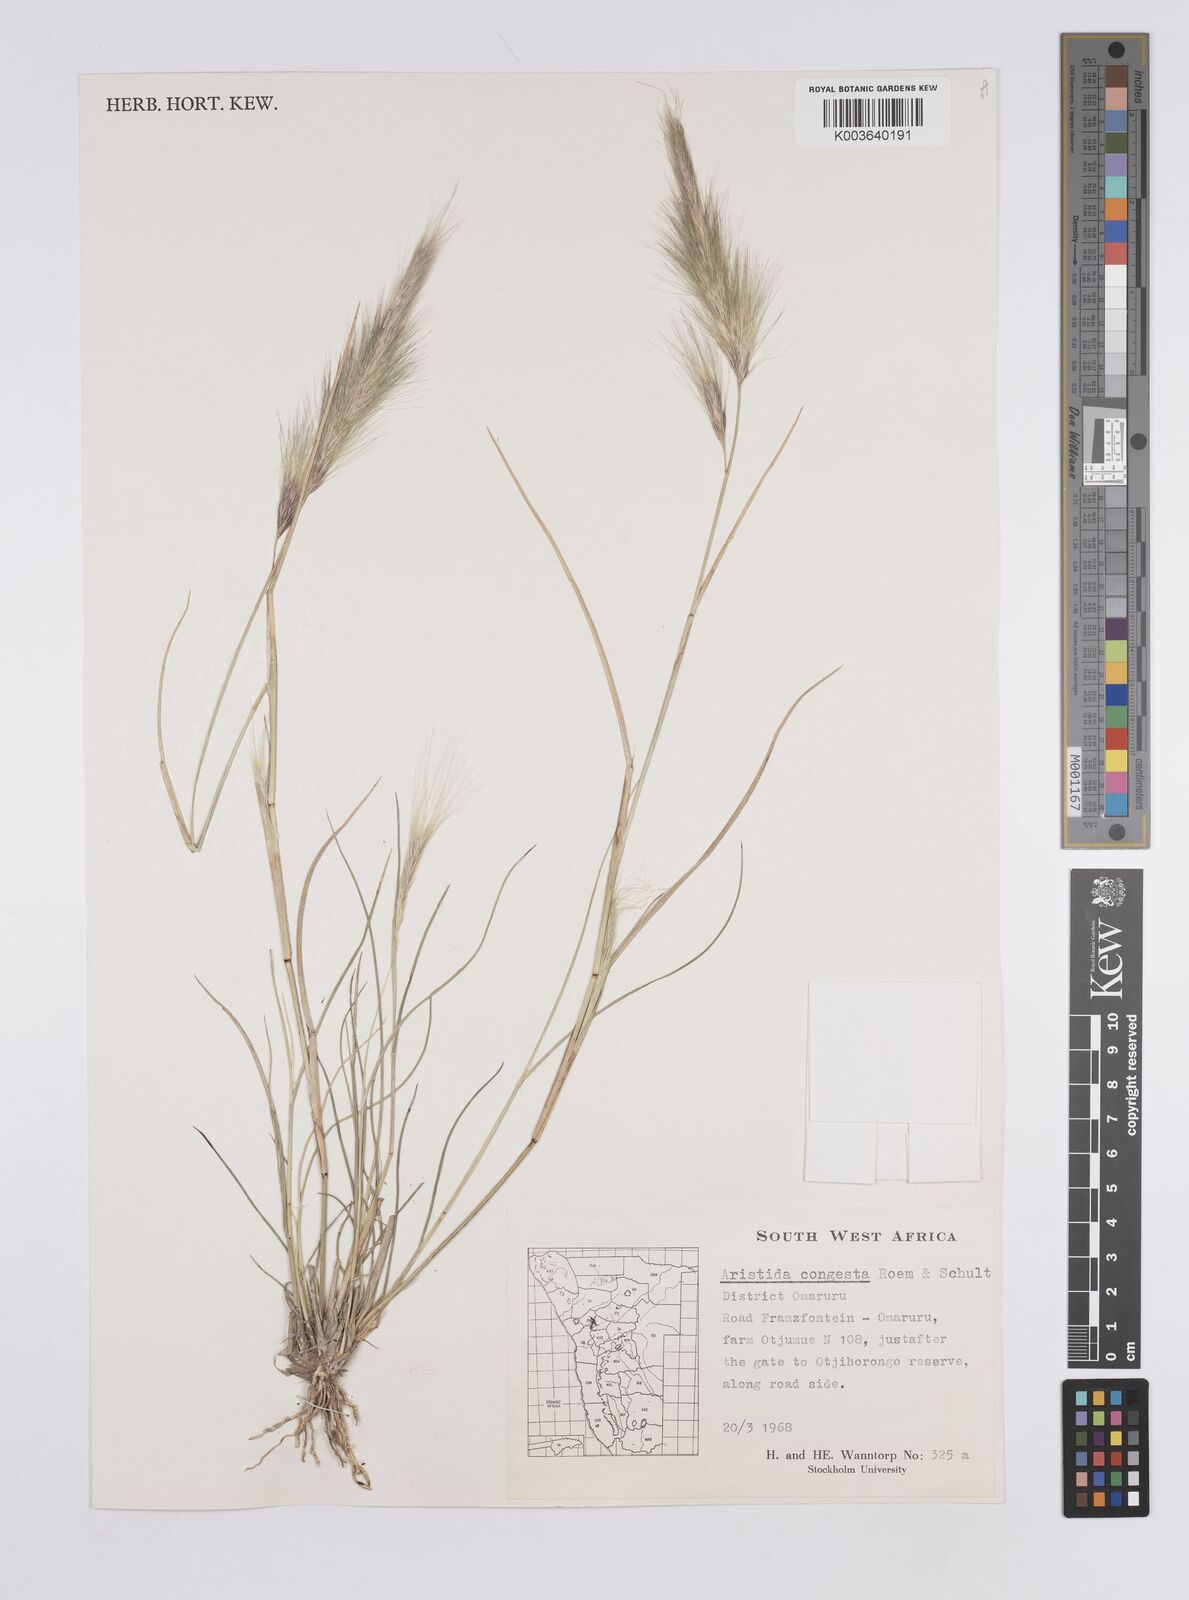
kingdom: Plantae
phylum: Tracheophyta
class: Liliopsida
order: Poales
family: Poaceae
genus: Aristida
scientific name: Aristida congesta
